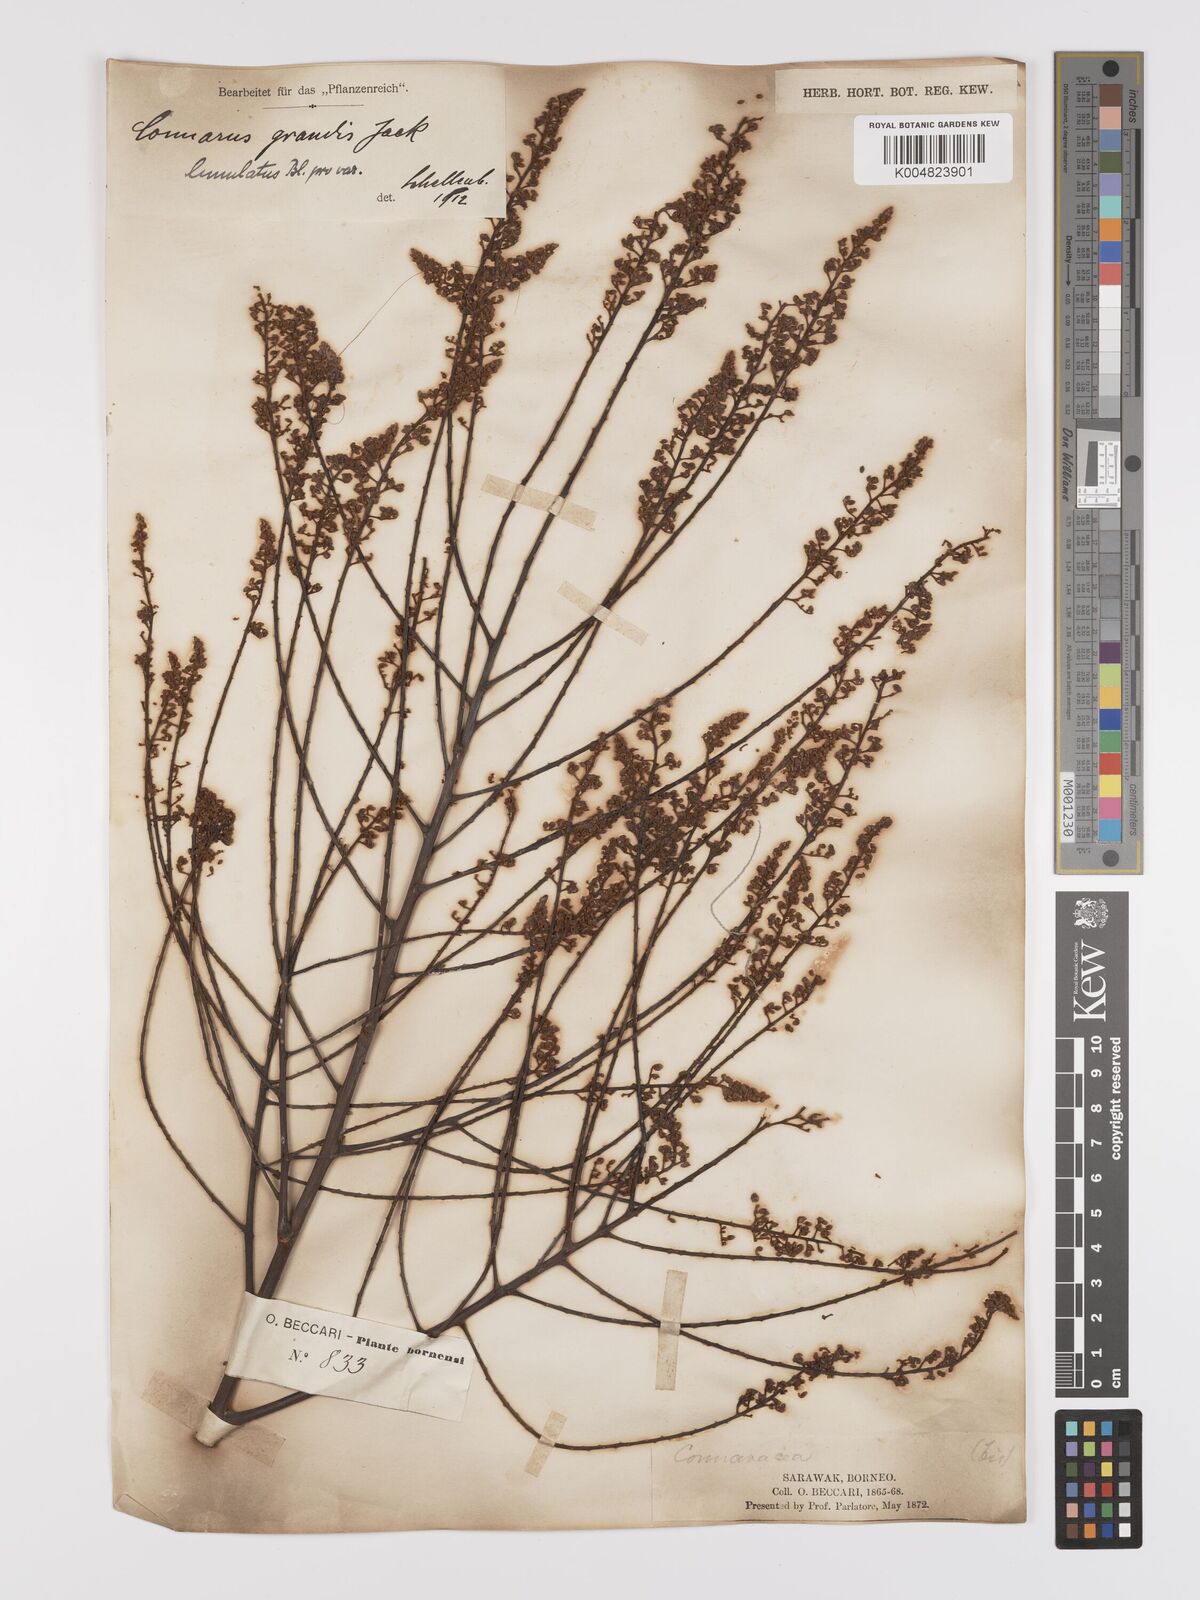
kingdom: Plantae
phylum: Tracheophyta
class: Magnoliopsida
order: Oxalidales
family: Connaraceae
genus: Connarus
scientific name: Connarus grandis
